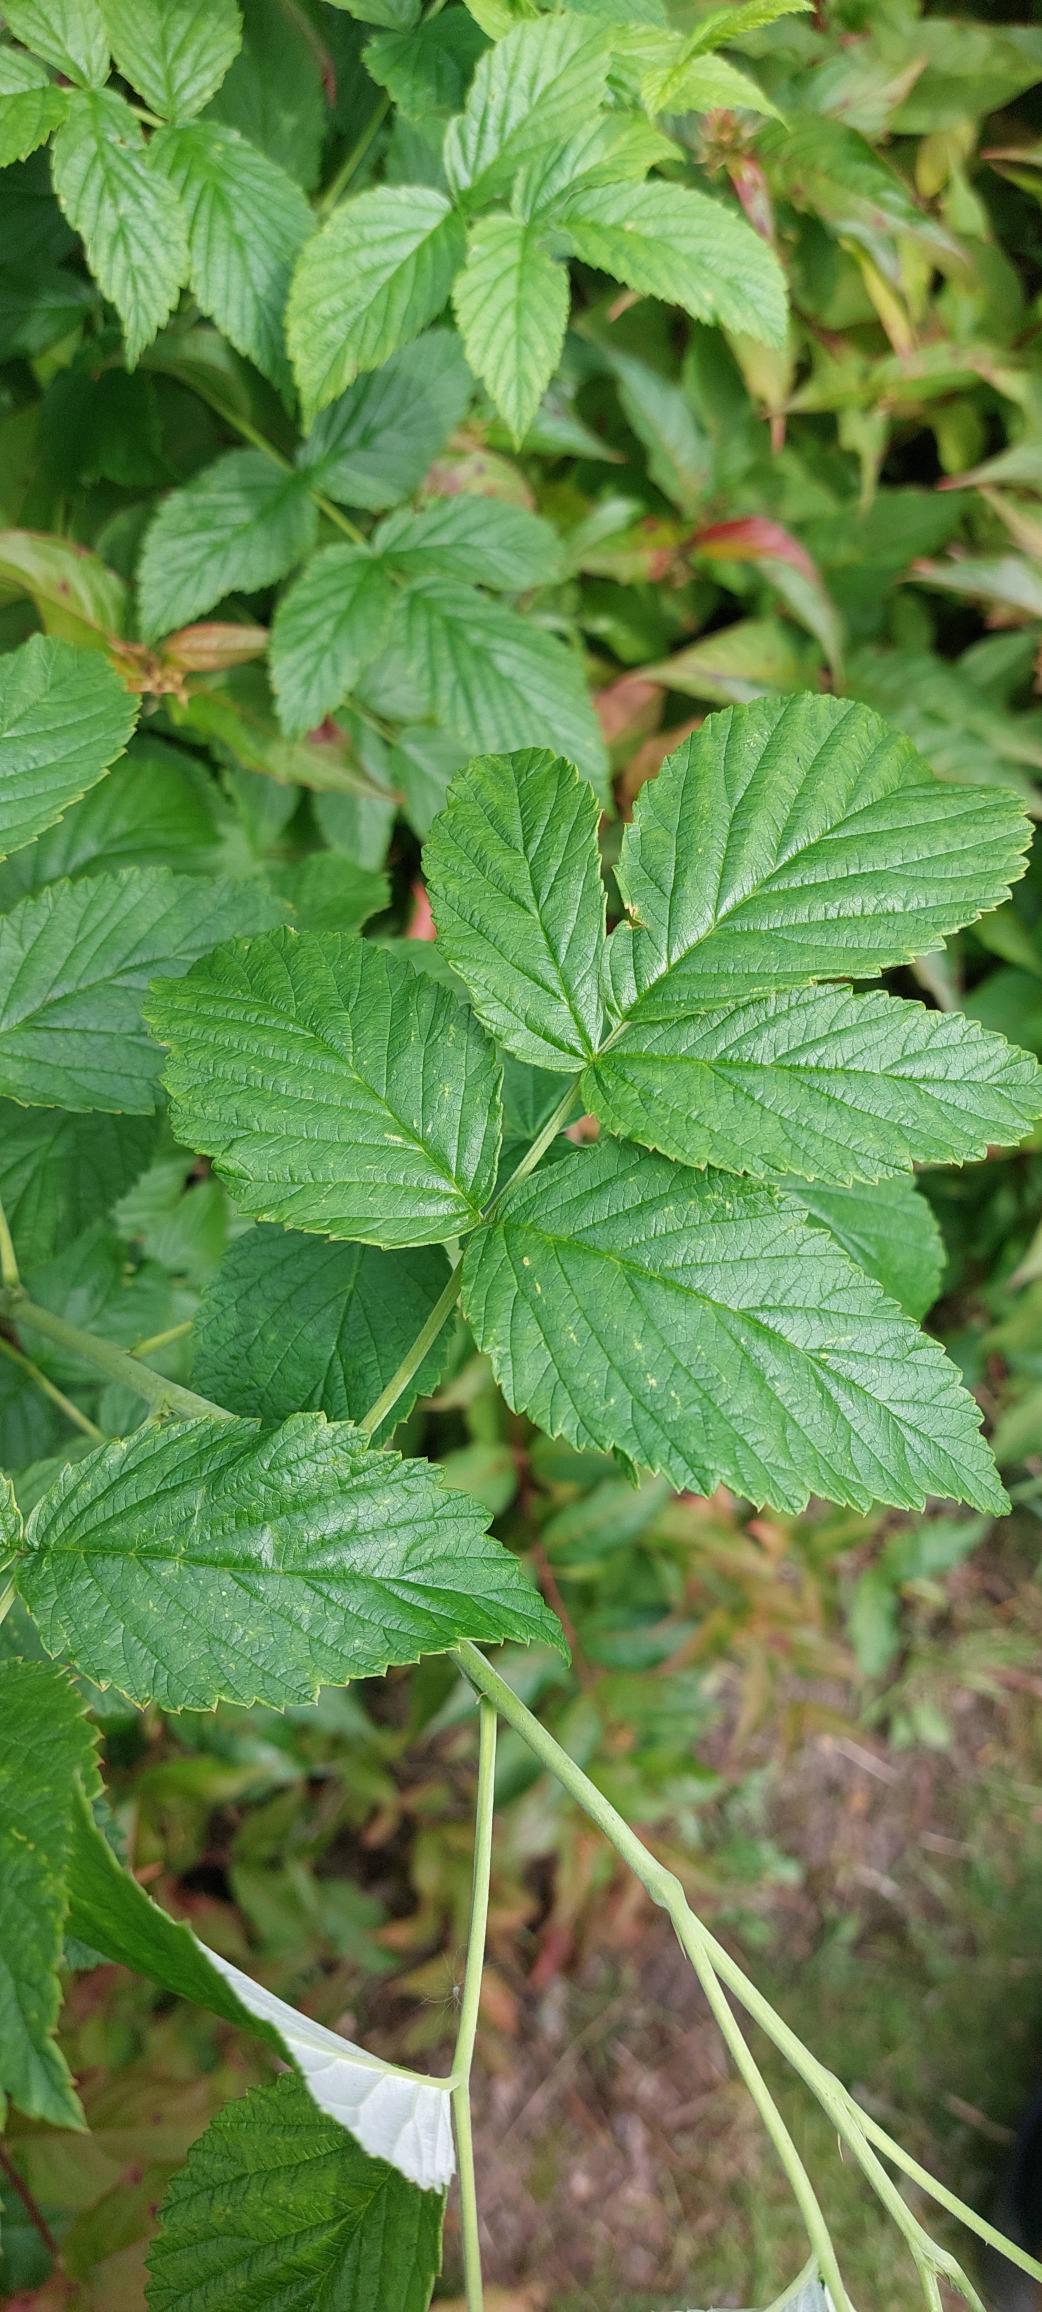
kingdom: Plantae
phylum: Tracheophyta
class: Magnoliopsida
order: Rosales
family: Rosaceae
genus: Rubus
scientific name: Rubus idaeus
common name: Hindbær
